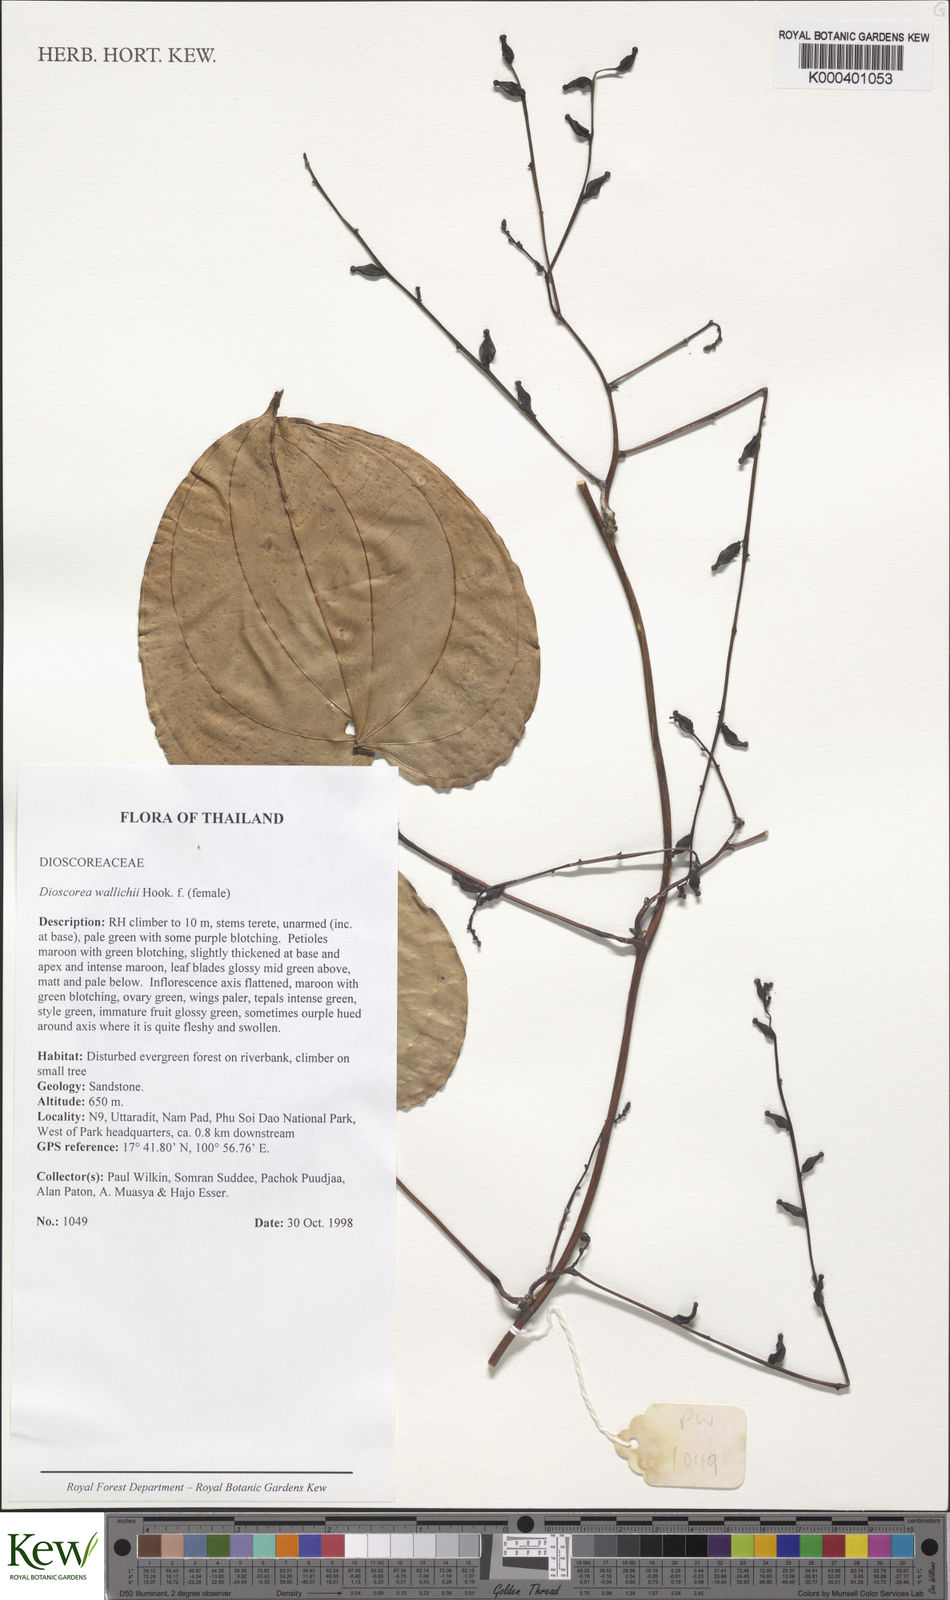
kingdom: Plantae
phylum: Tracheophyta
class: Liliopsida
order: Dioscoreales
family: Dioscoreaceae
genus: Dioscorea
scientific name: Dioscorea wallichii
